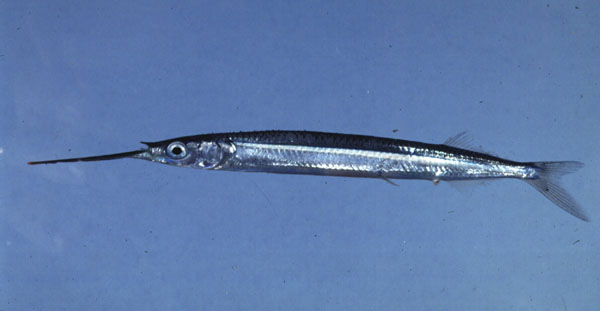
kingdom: Animalia
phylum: Chordata
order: Beloniformes
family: Hemiramphidae
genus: Hyporhamphus
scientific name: Hyporhamphus affinis
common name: Tropical halfbeak
